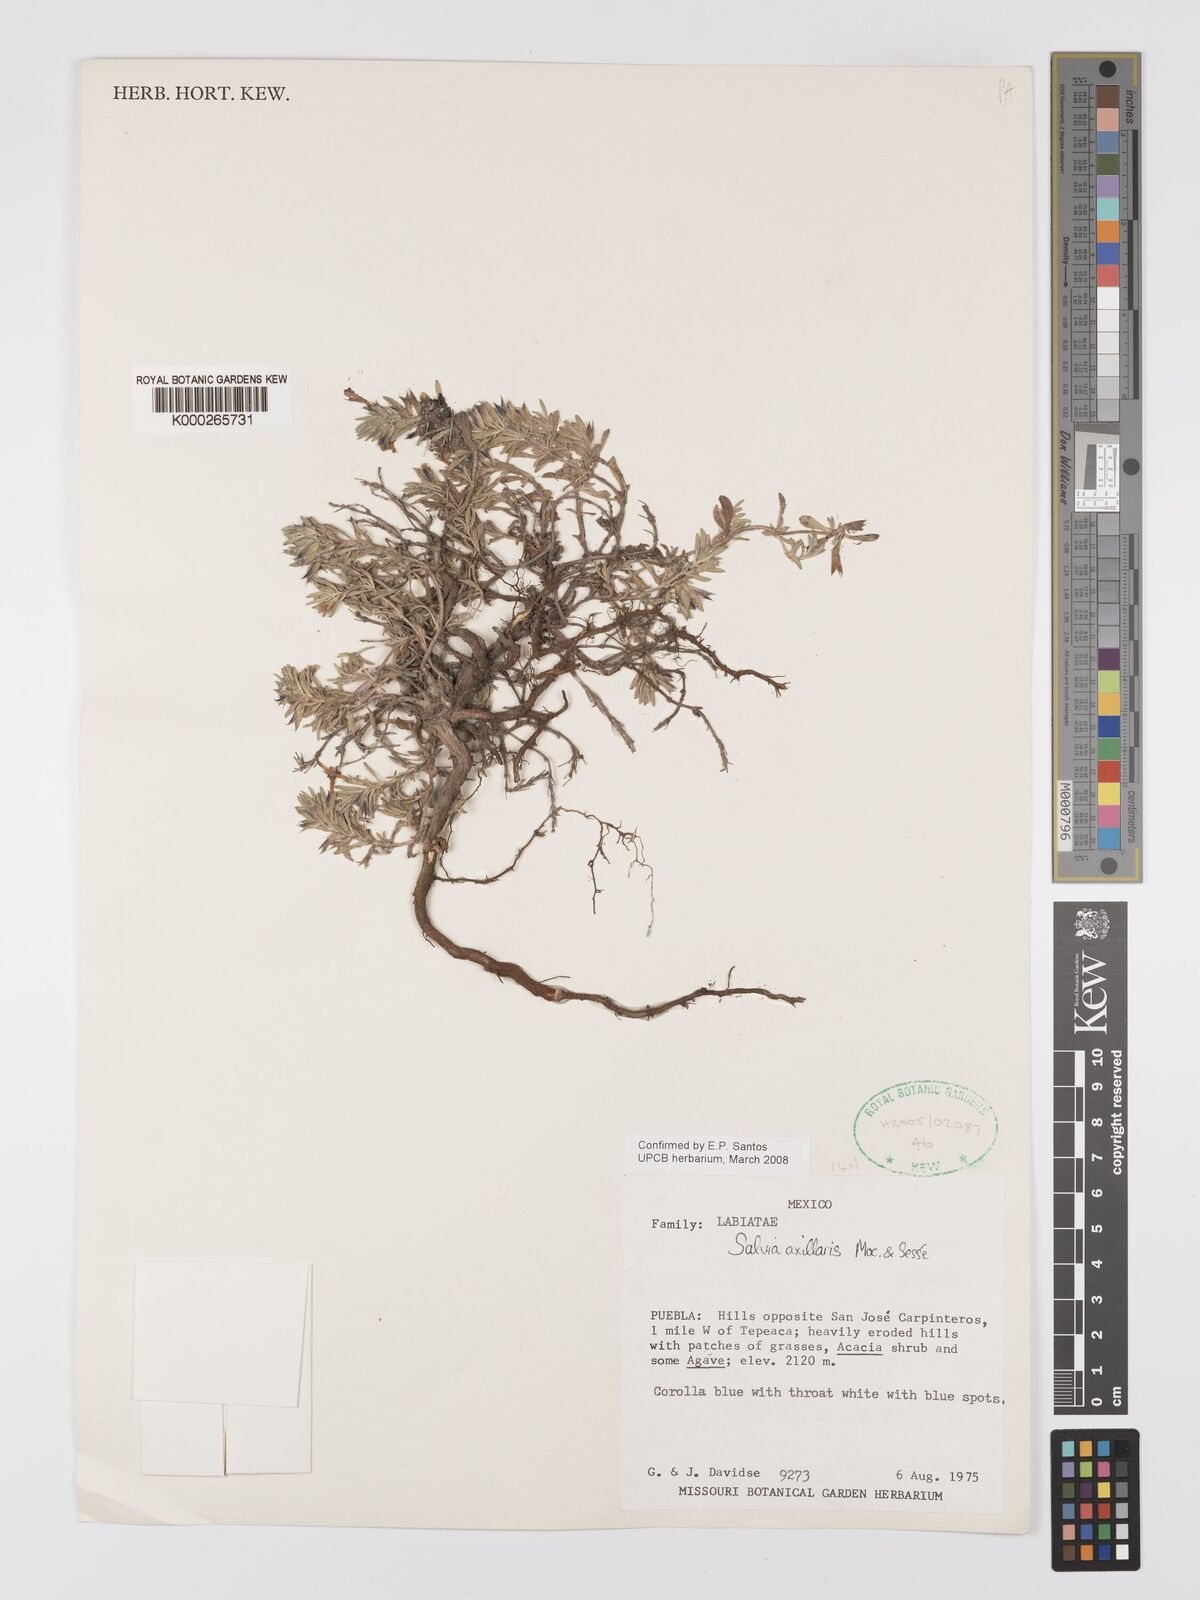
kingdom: Plantae
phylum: Tracheophyta
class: Magnoliopsida
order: Lamiales
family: Lamiaceae
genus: Salvia
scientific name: Salvia
